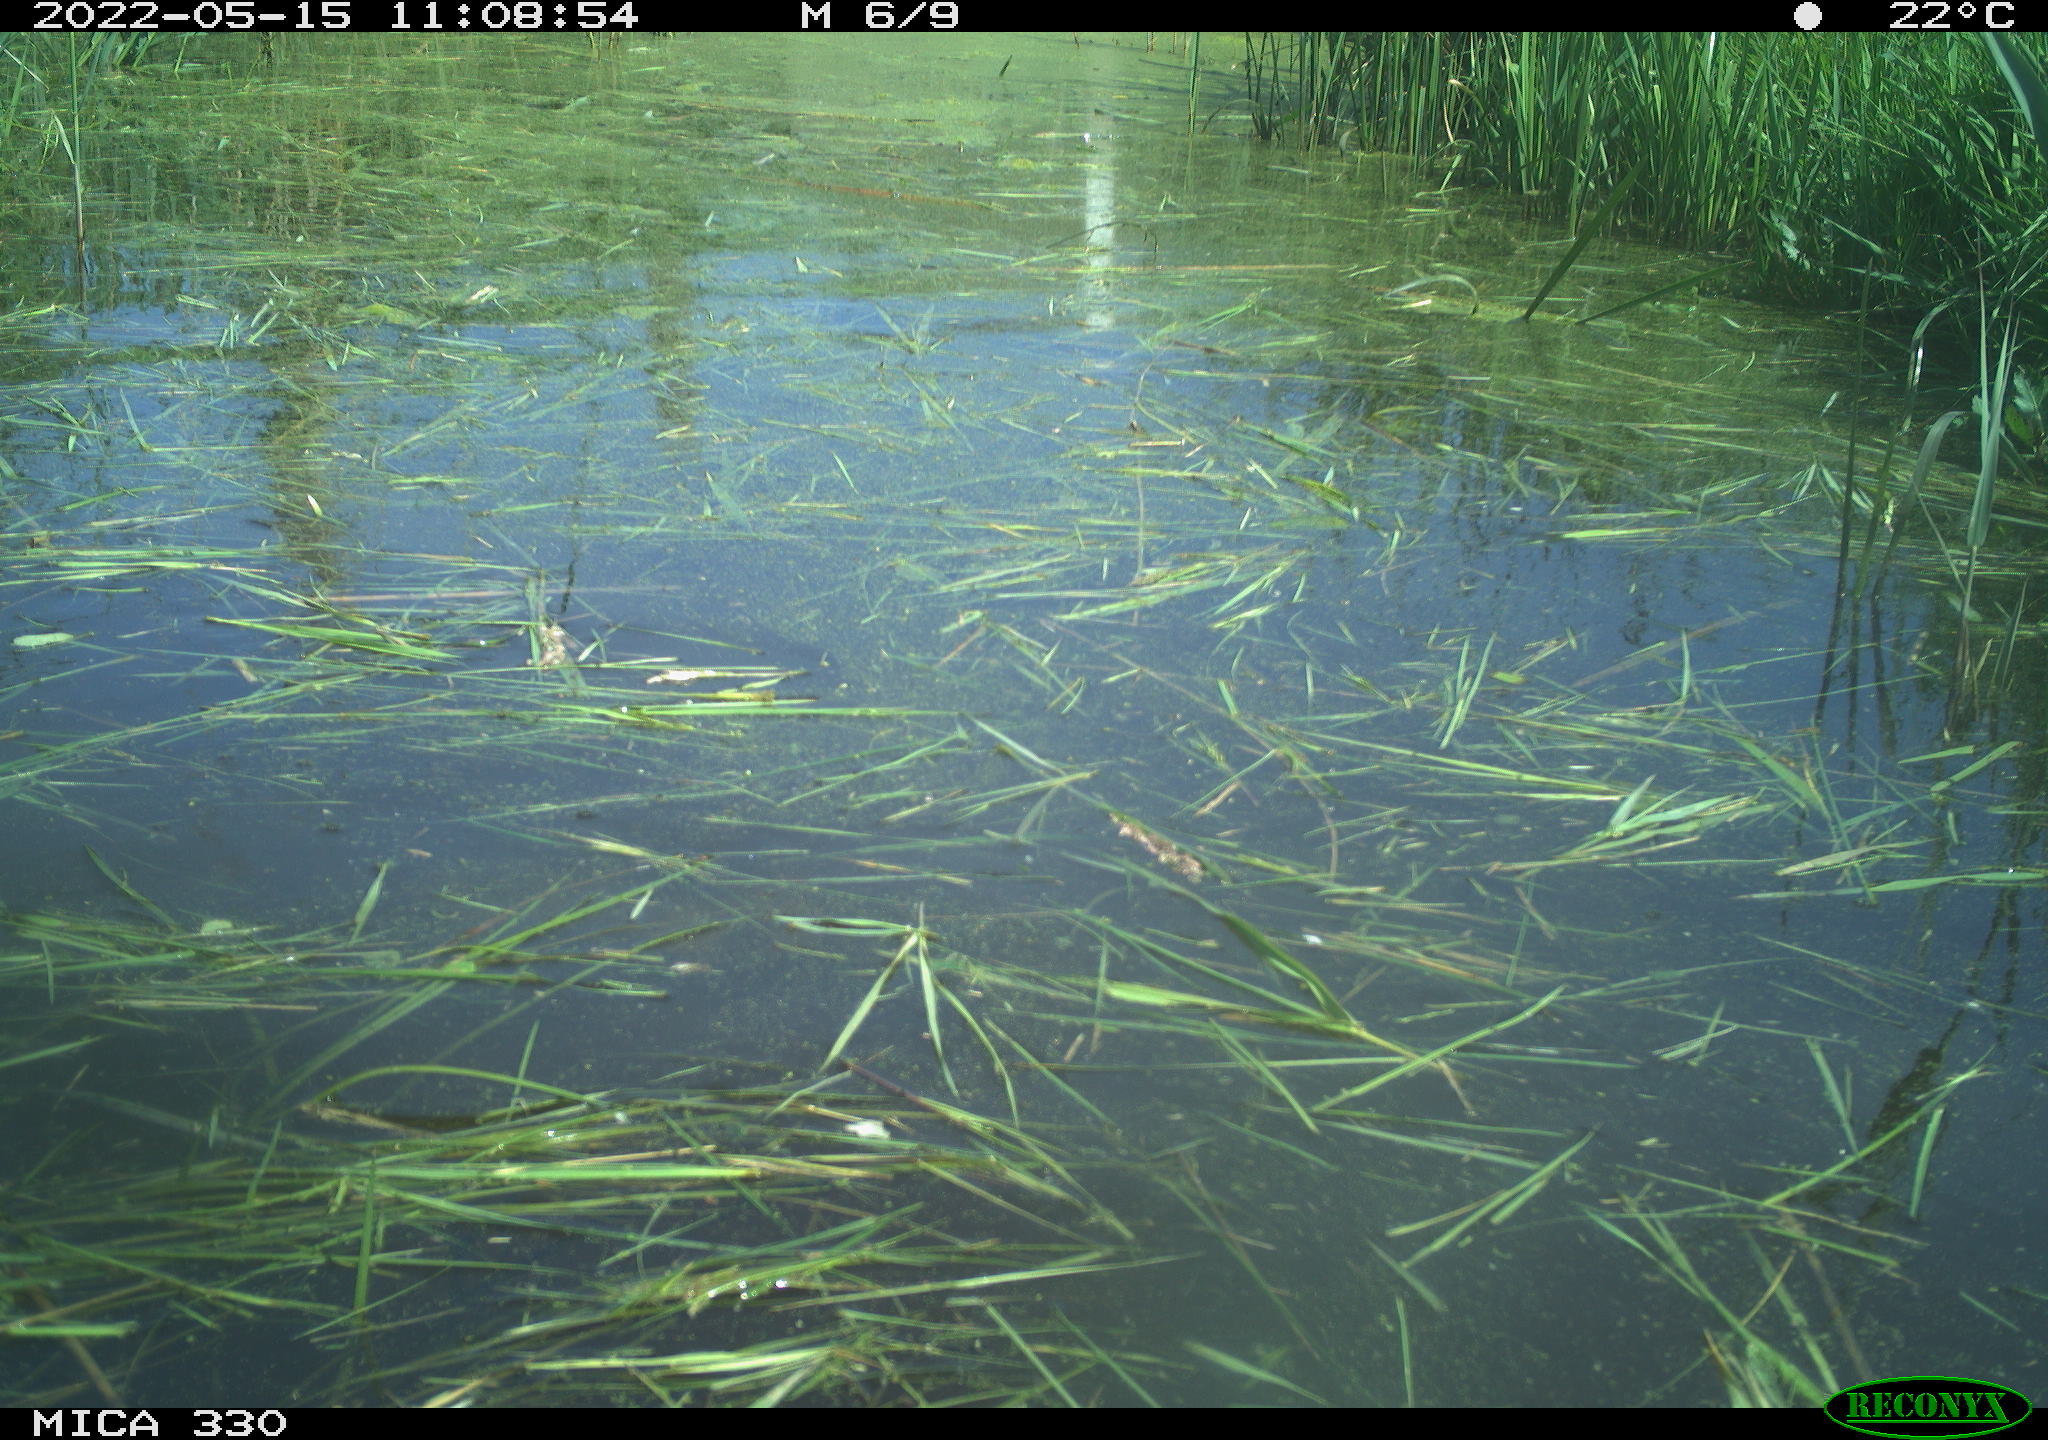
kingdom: Animalia
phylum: Chordata
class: Mammalia
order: Carnivora
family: Mustelidae
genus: Mustela
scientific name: Mustela erminea
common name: Stoat
